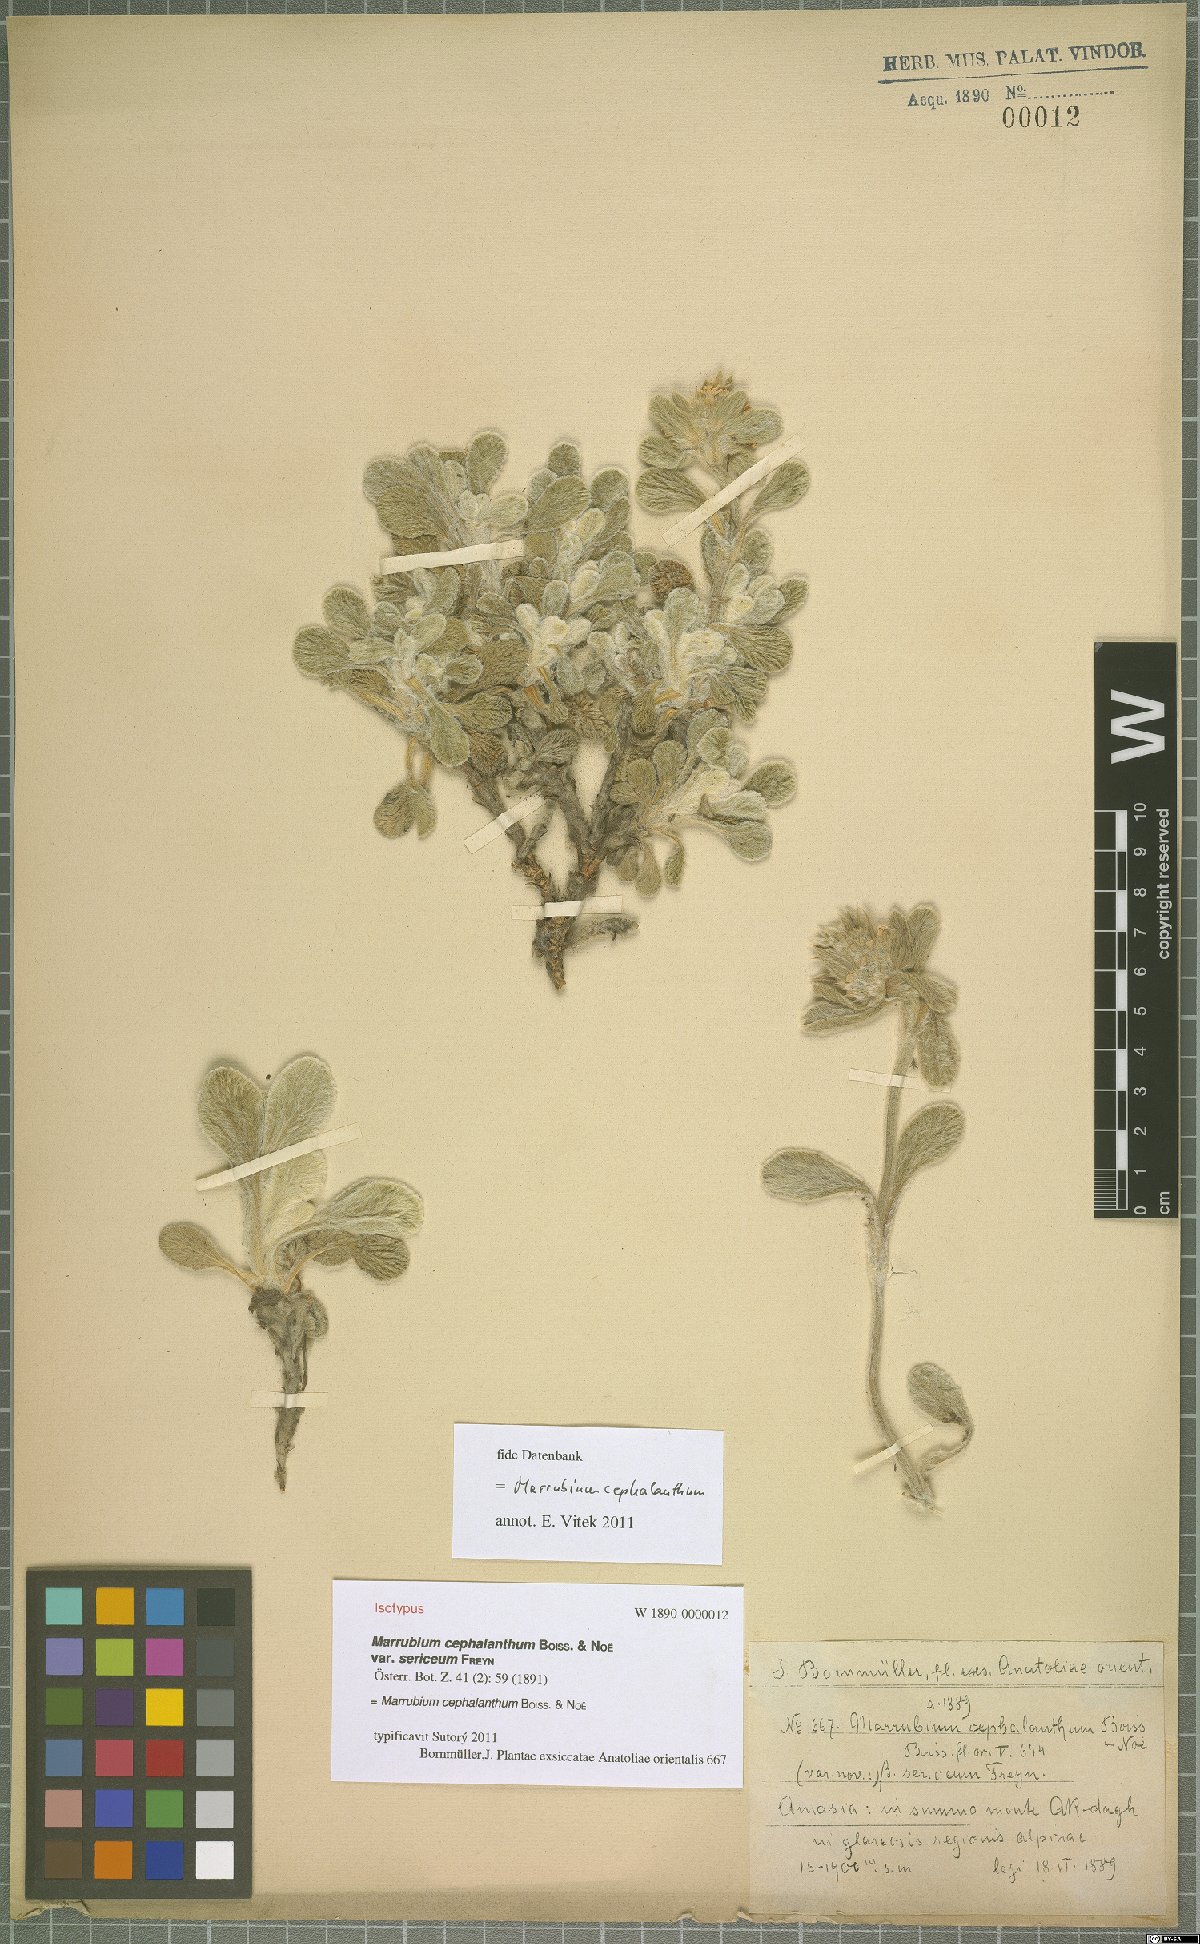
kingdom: Plantae
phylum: Tracheophyta
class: Magnoliopsida
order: Lamiales
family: Lamiaceae
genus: Marrubium
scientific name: Marrubium cephalanthum
